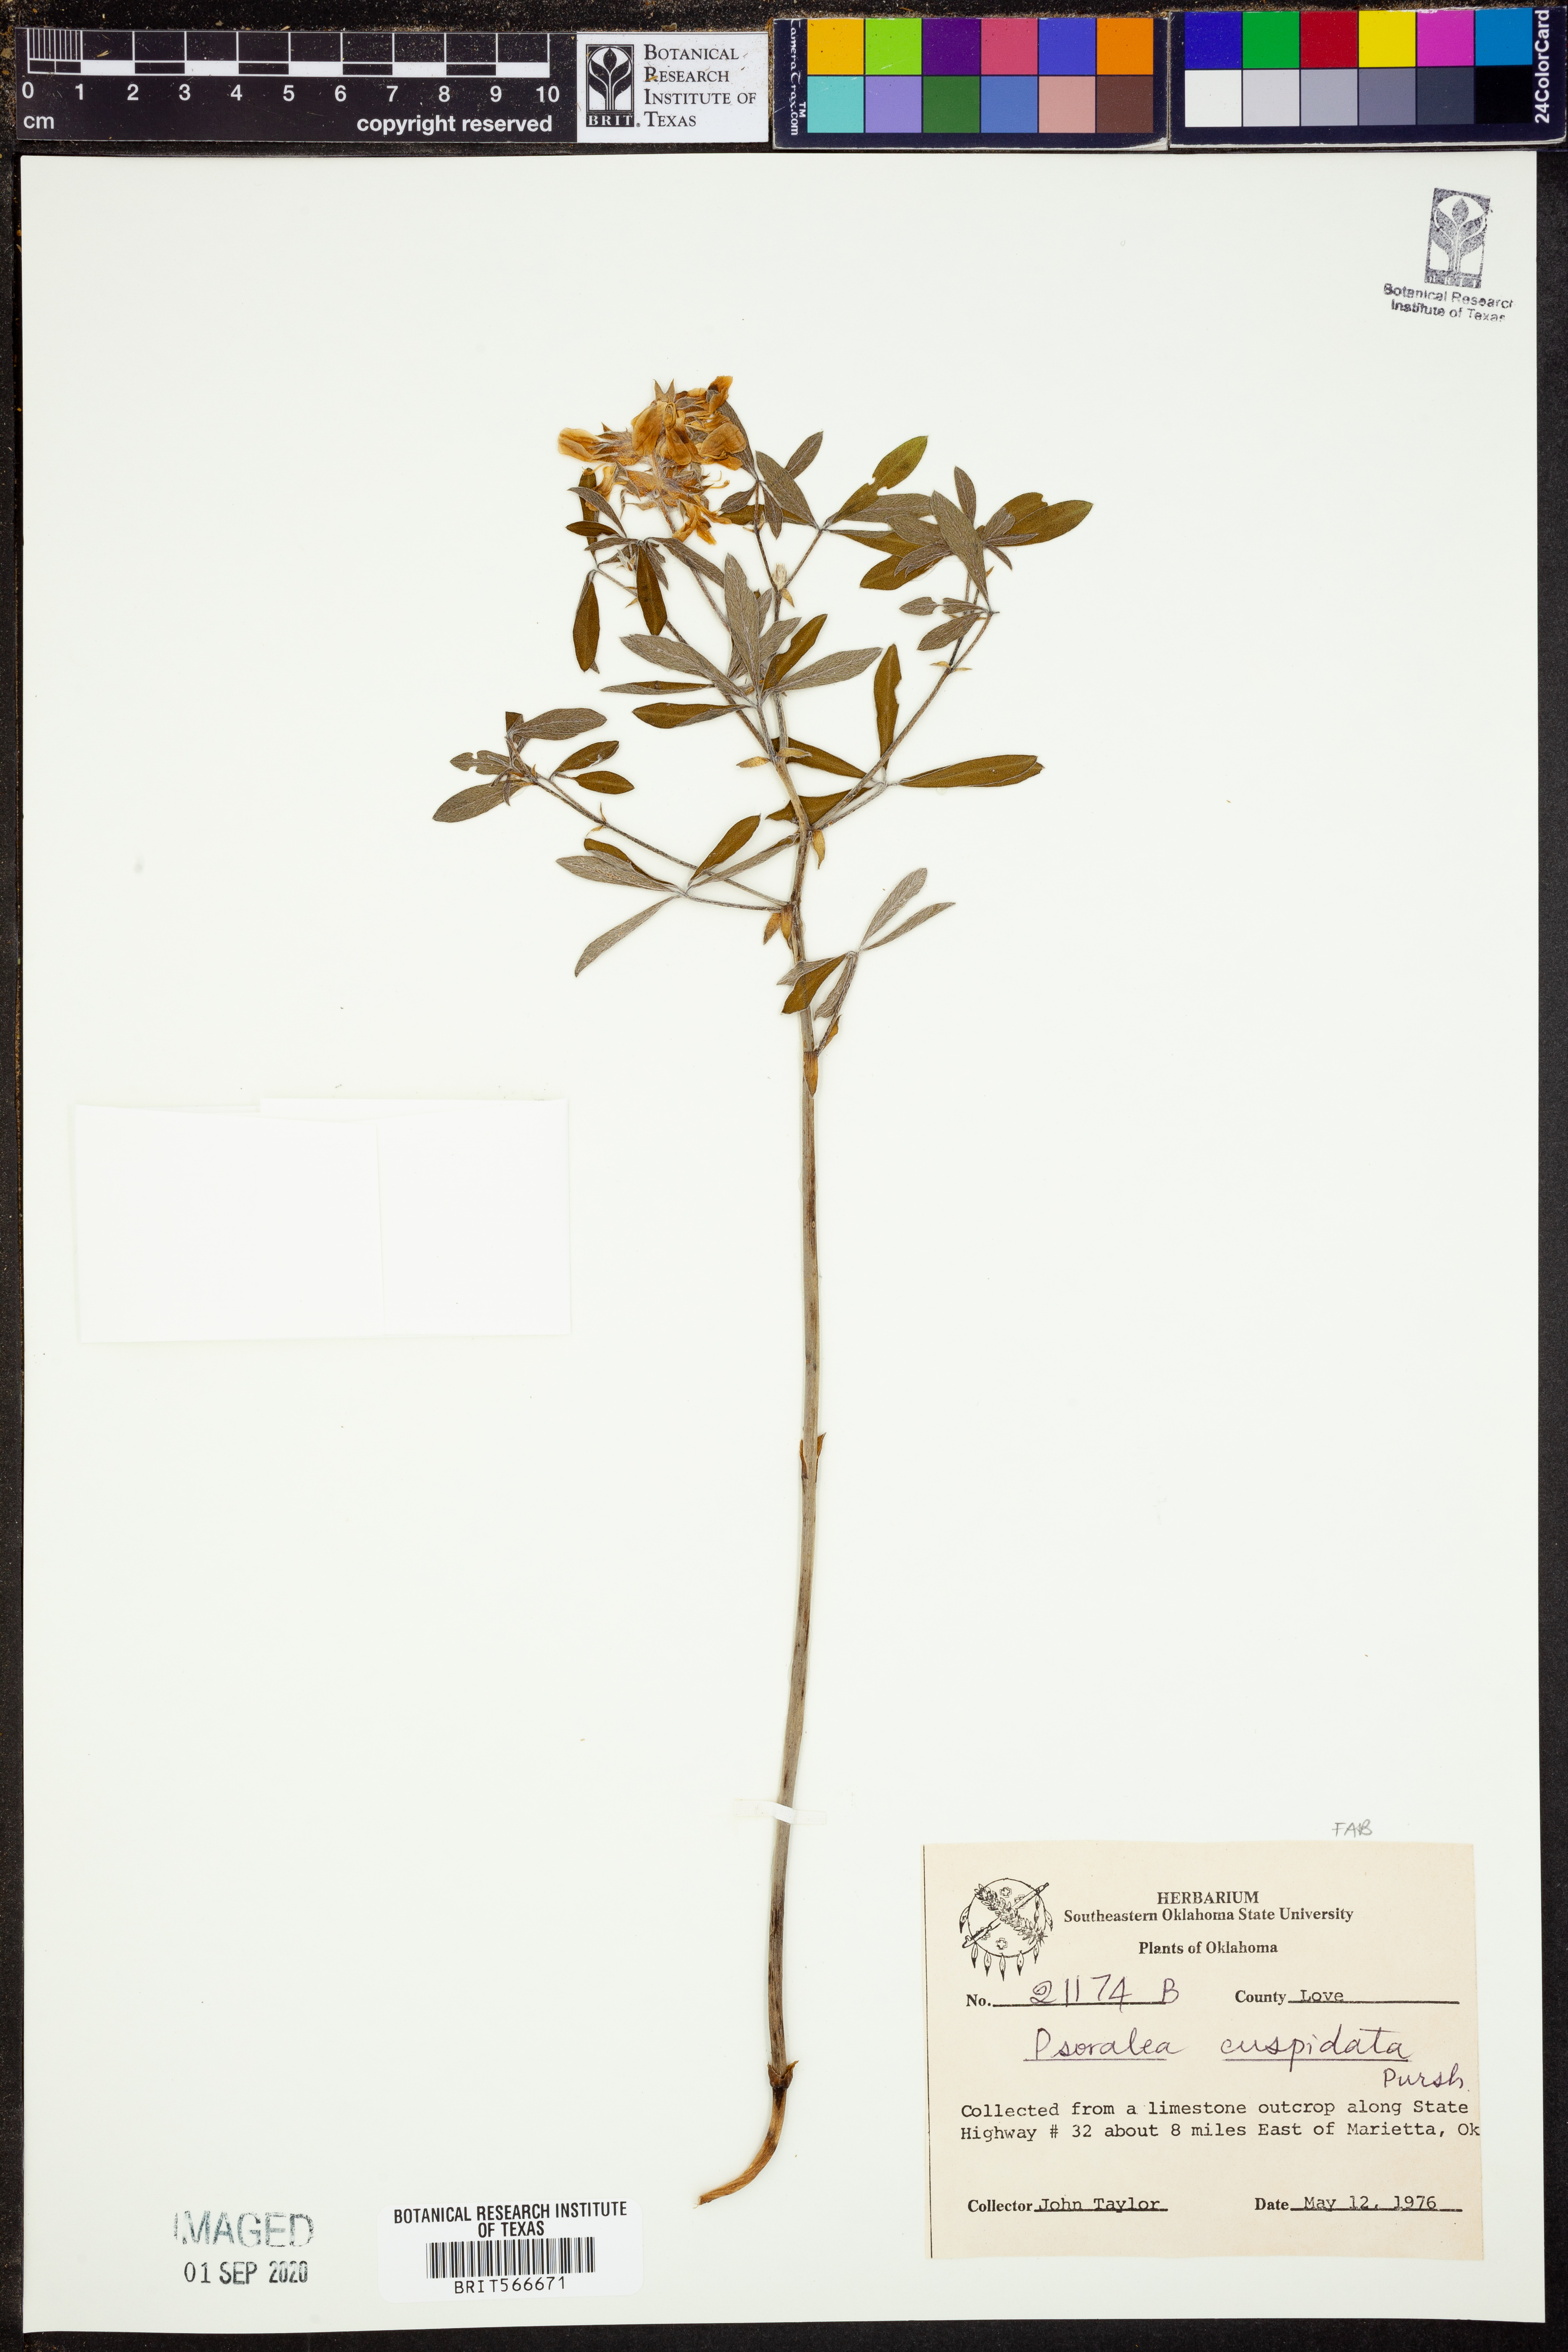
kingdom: Plantae
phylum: Tracheophyta
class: Magnoliopsida
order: Fabales
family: Fabaceae
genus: Pediomelum
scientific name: Pediomelum cuspidatum
